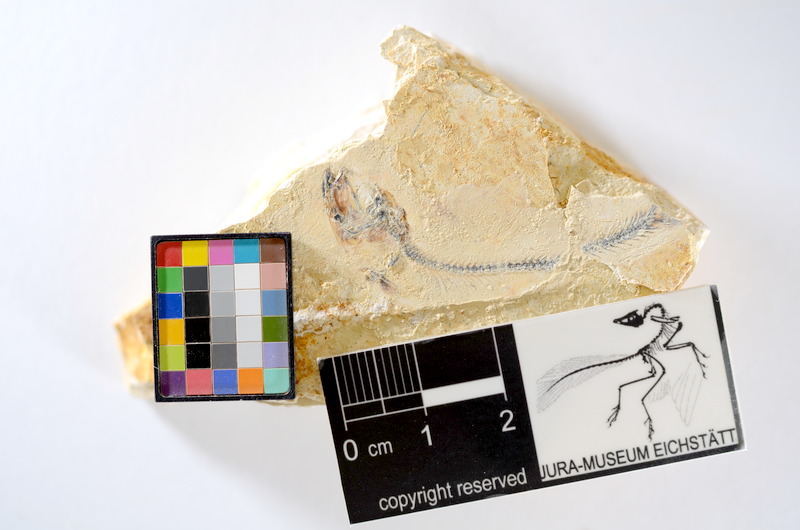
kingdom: Animalia
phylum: Chordata
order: Salmoniformes
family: Orthogonikleithridae
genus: Orthogonikleithrus
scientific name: Orthogonikleithrus hoelli
